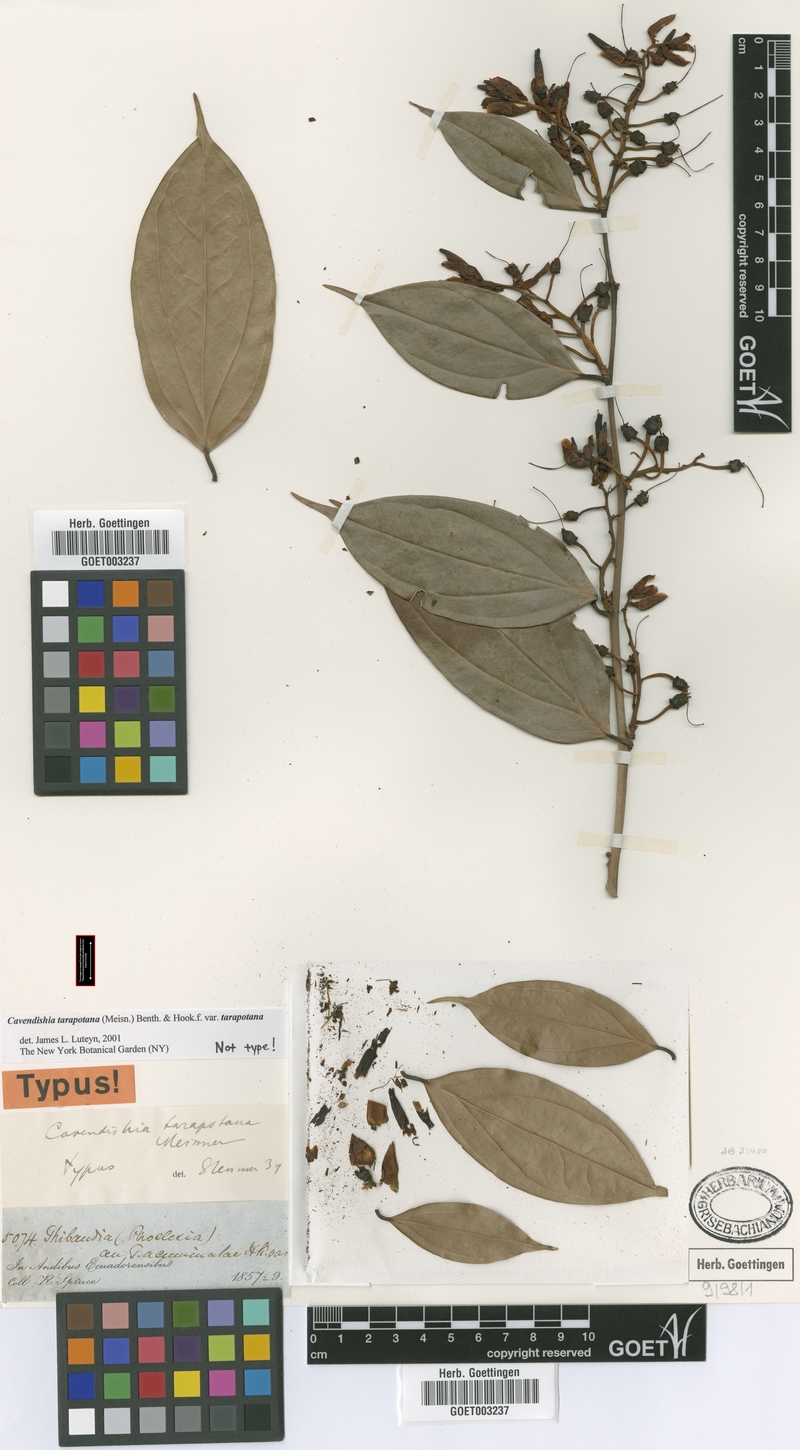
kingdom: Plantae
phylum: Tracheophyta
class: Magnoliopsida
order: Ericales
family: Ericaceae
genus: Cavendishia
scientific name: Cavendishia tarapotana
